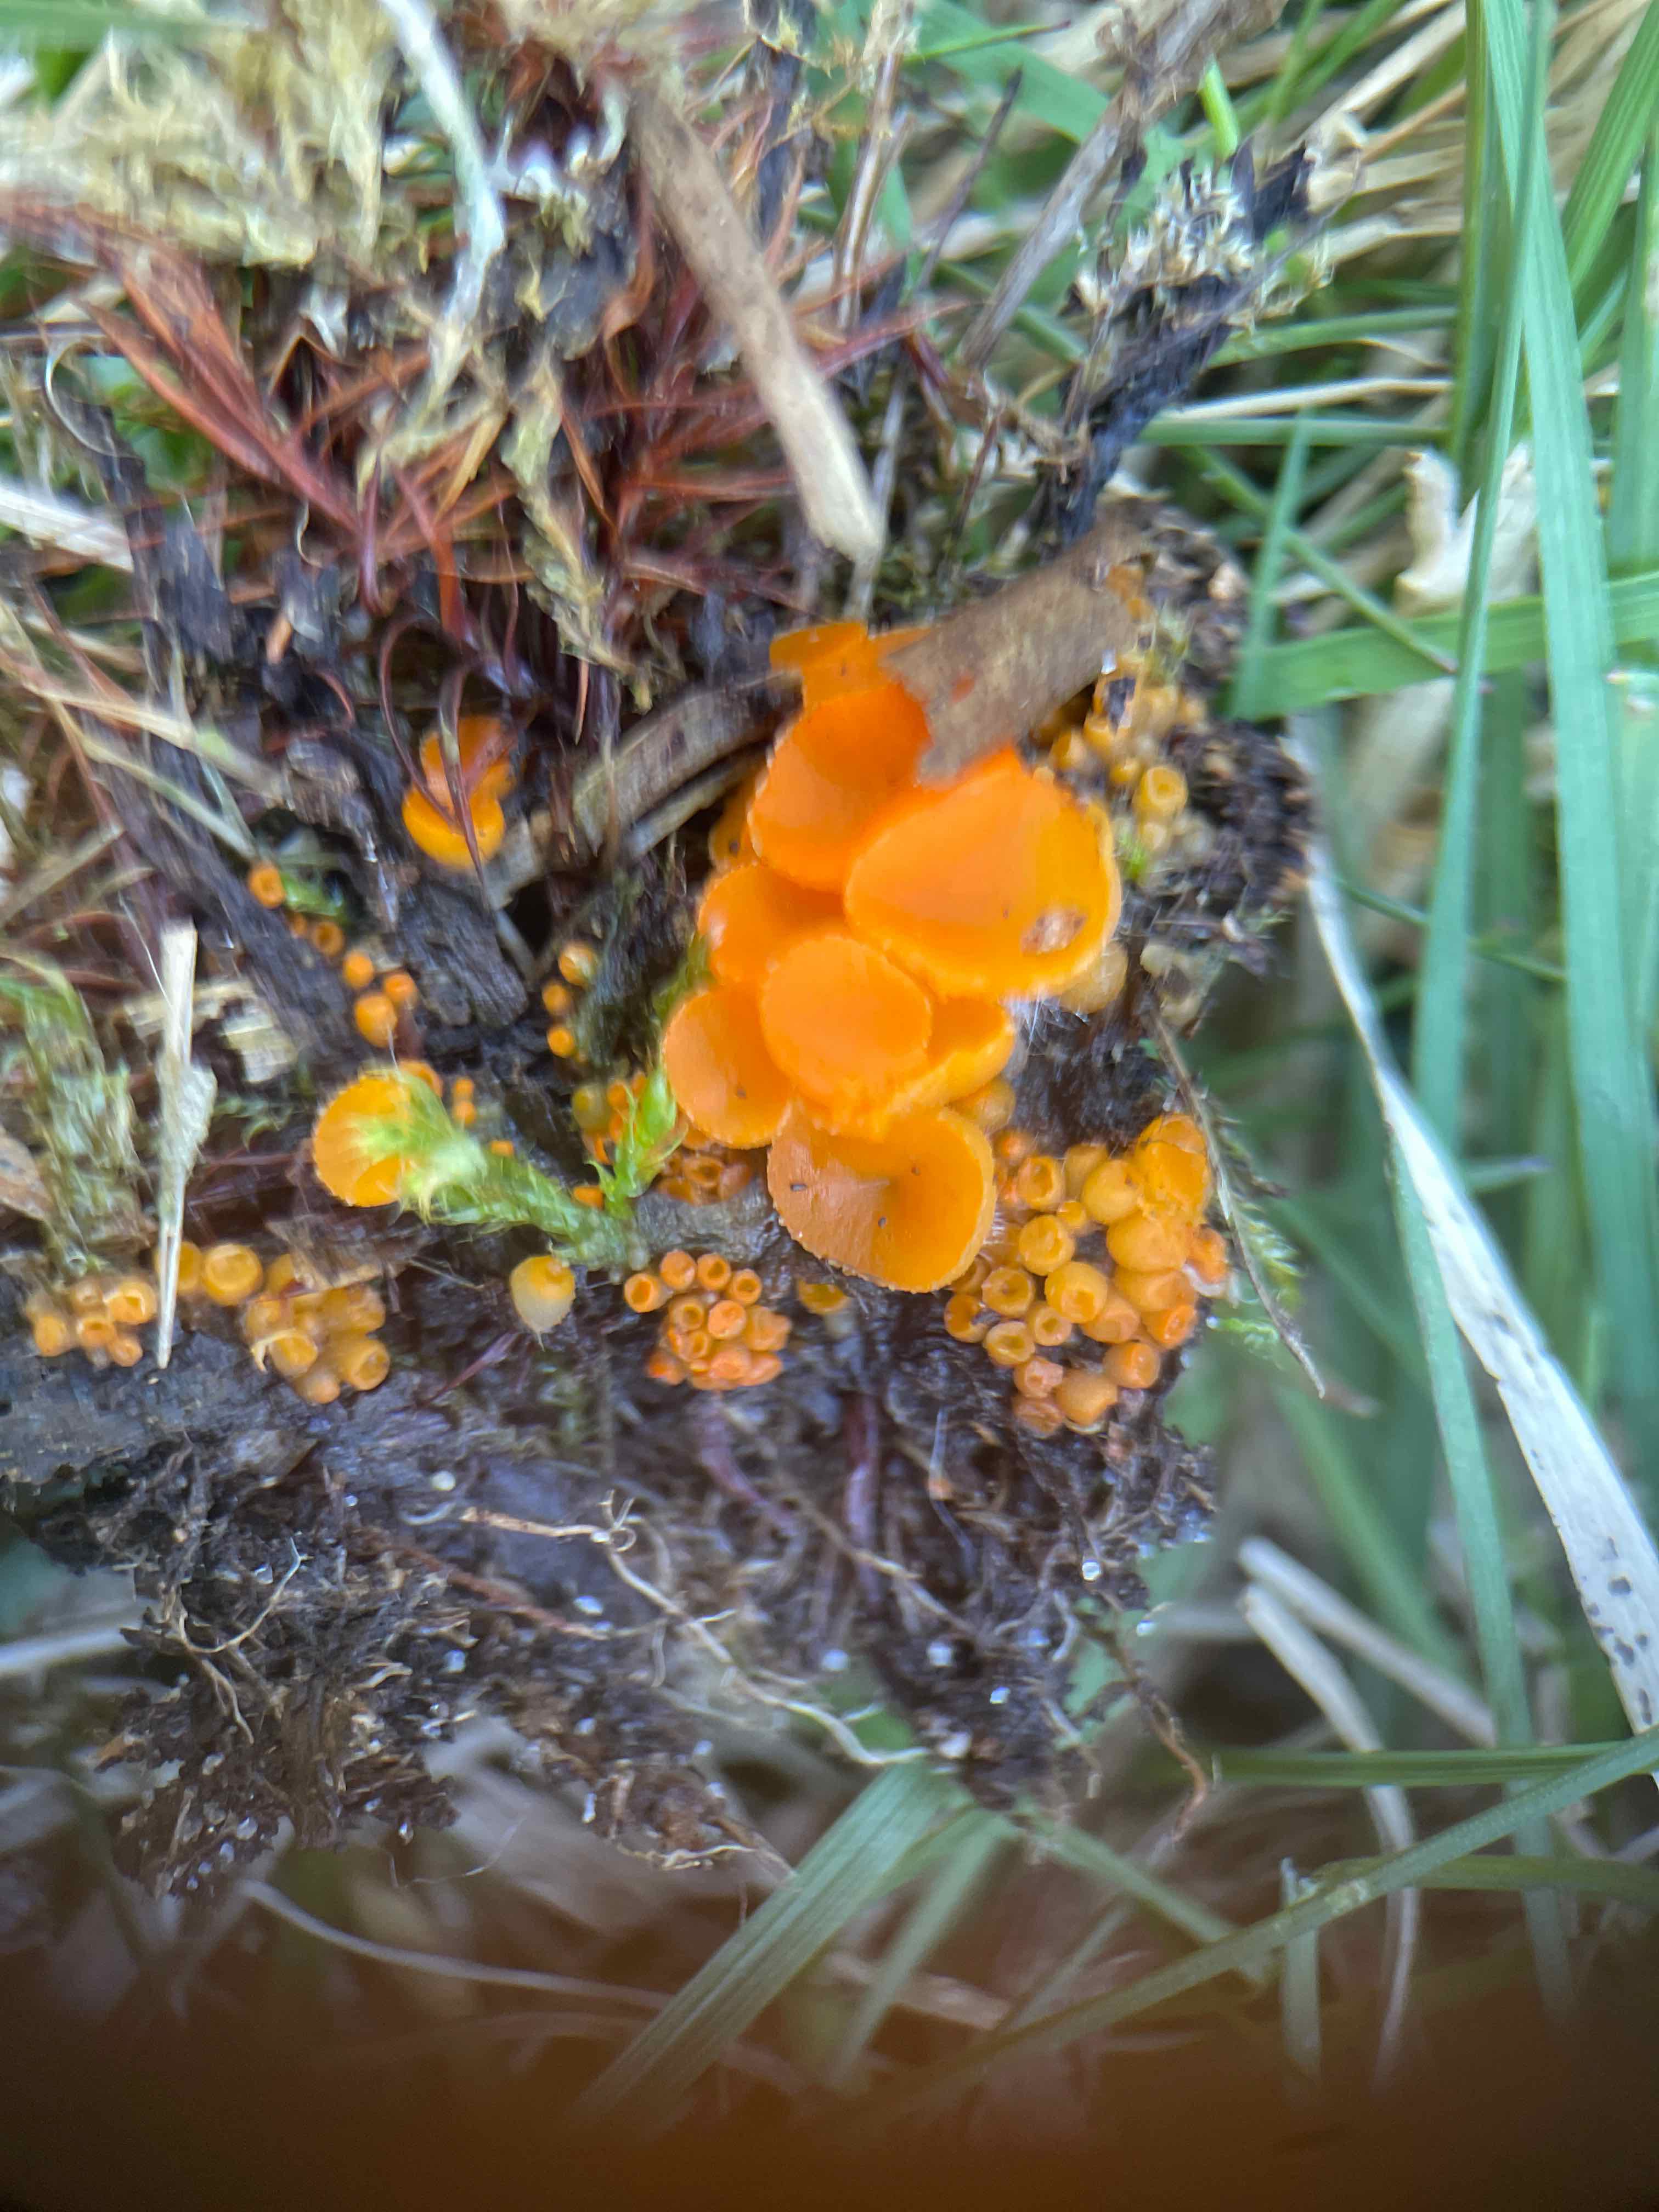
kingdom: Fungi
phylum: Ascomycota
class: Pezizomycetes
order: Pezizales
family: Pyronemataceae
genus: Byssonectria
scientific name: Byssonectria terrestris
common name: hjortebæger
